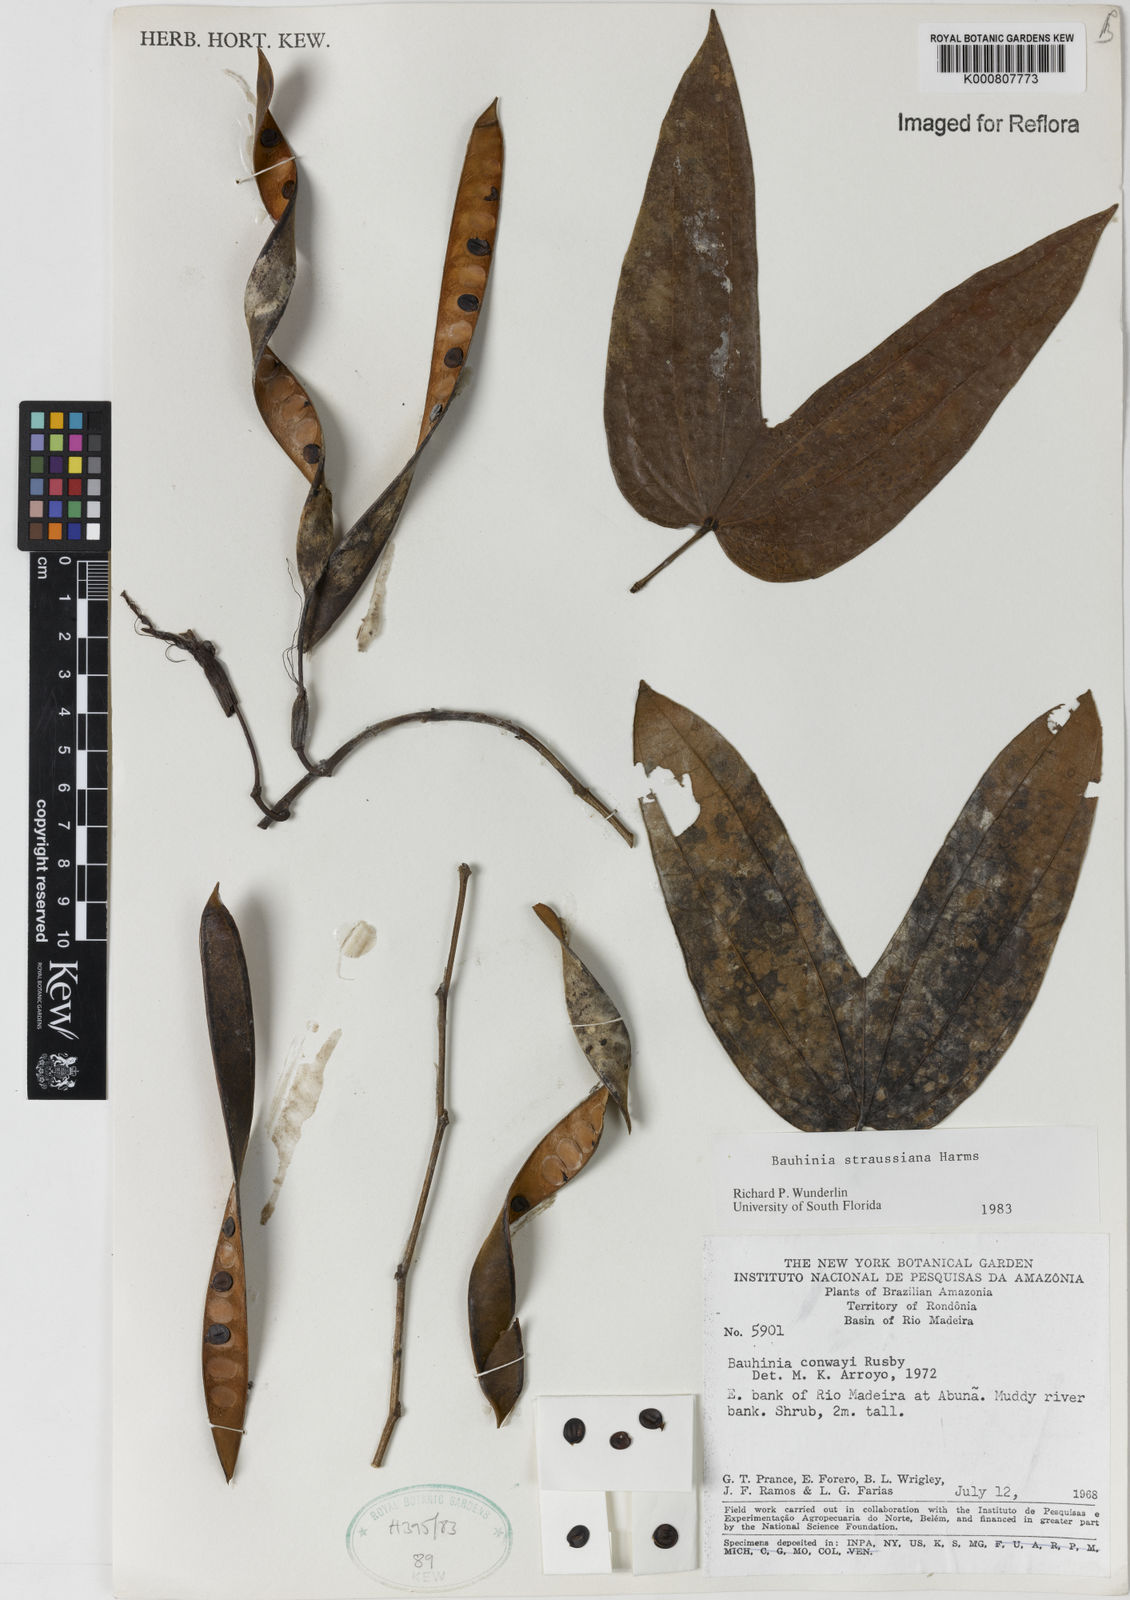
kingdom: Plantae
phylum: Tracheophyta
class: Magnoliopsida
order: Fabales
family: Fabaceae
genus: Bauhinia
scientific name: Bauhinia conwayi
